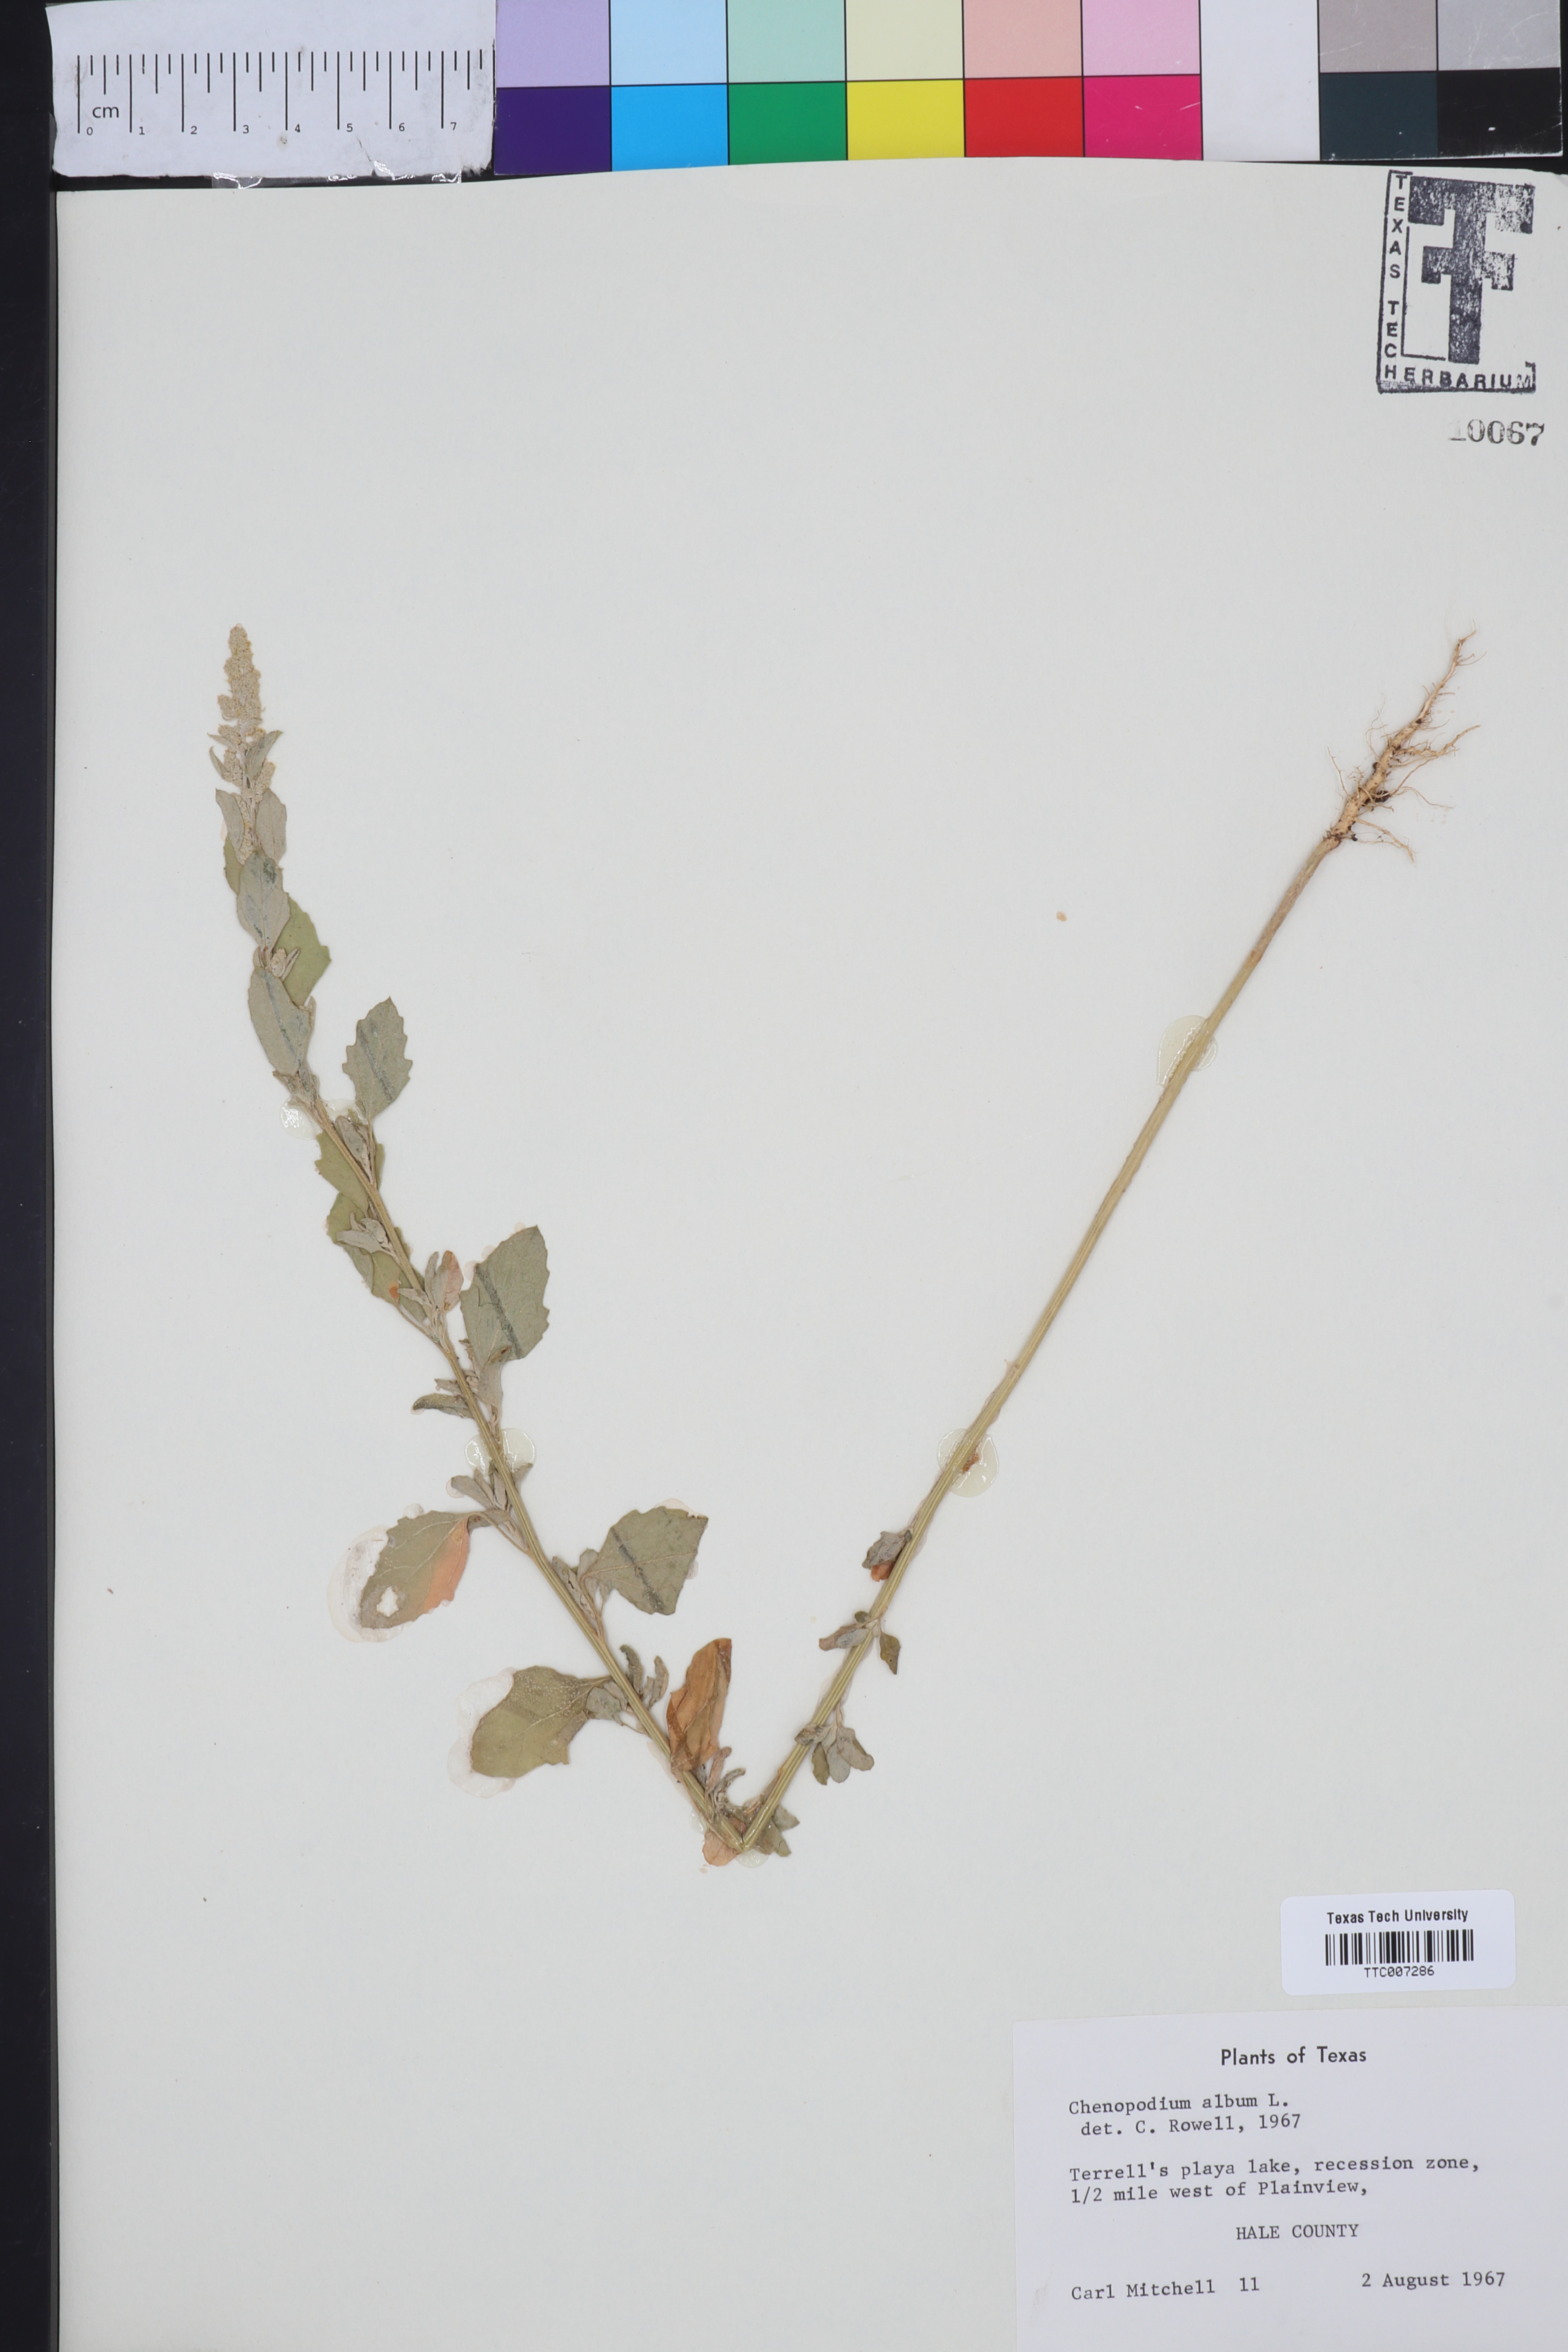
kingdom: Plantae
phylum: Tracheophyta
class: Magnoliopsida
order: Caryophyllales
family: Amaranthaceae
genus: Chenopodium
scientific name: Chenopodium album
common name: Fat-hen
